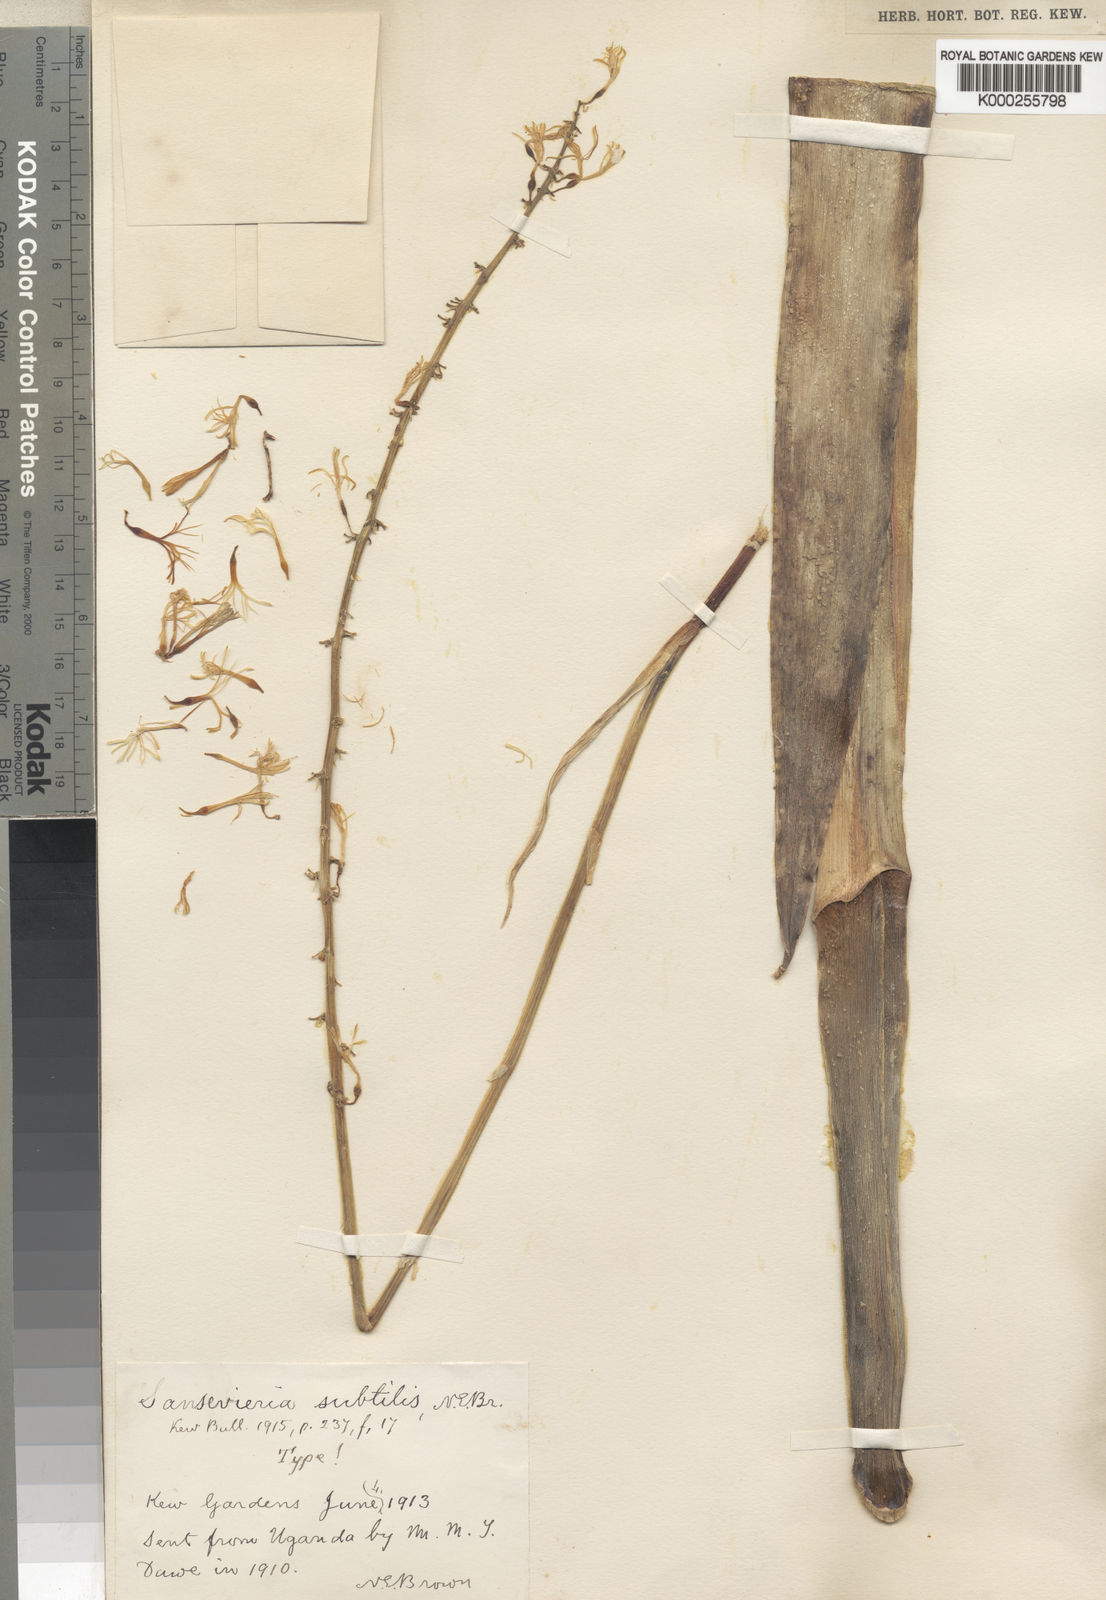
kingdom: Plantae
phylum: Tracheophyta
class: Liliopsida
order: Asparagales
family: Asparagaceae
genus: Dracaena
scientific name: Dracaena subtilis
